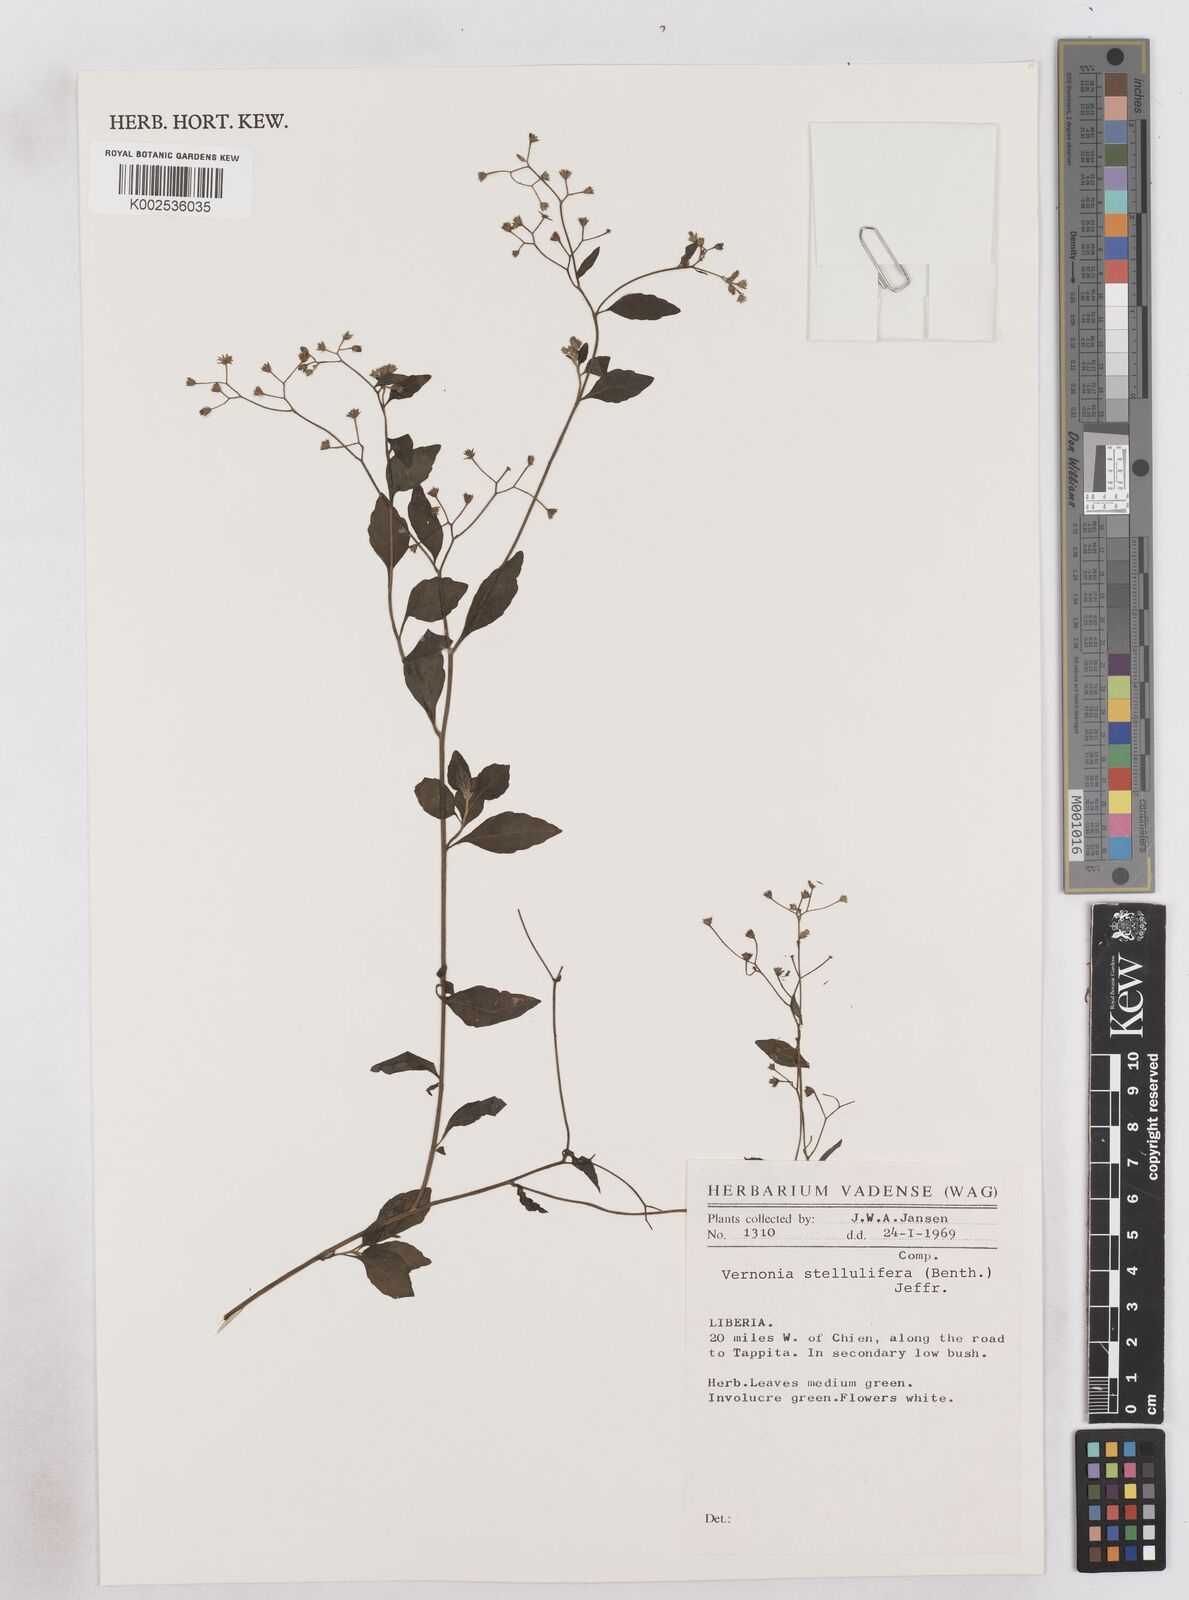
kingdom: Plantae
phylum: Tracheophyta
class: Magnoliopsida
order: Asterales
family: Asteraceae
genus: Cyanthillium
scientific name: Cyanthillium stelluliferum
